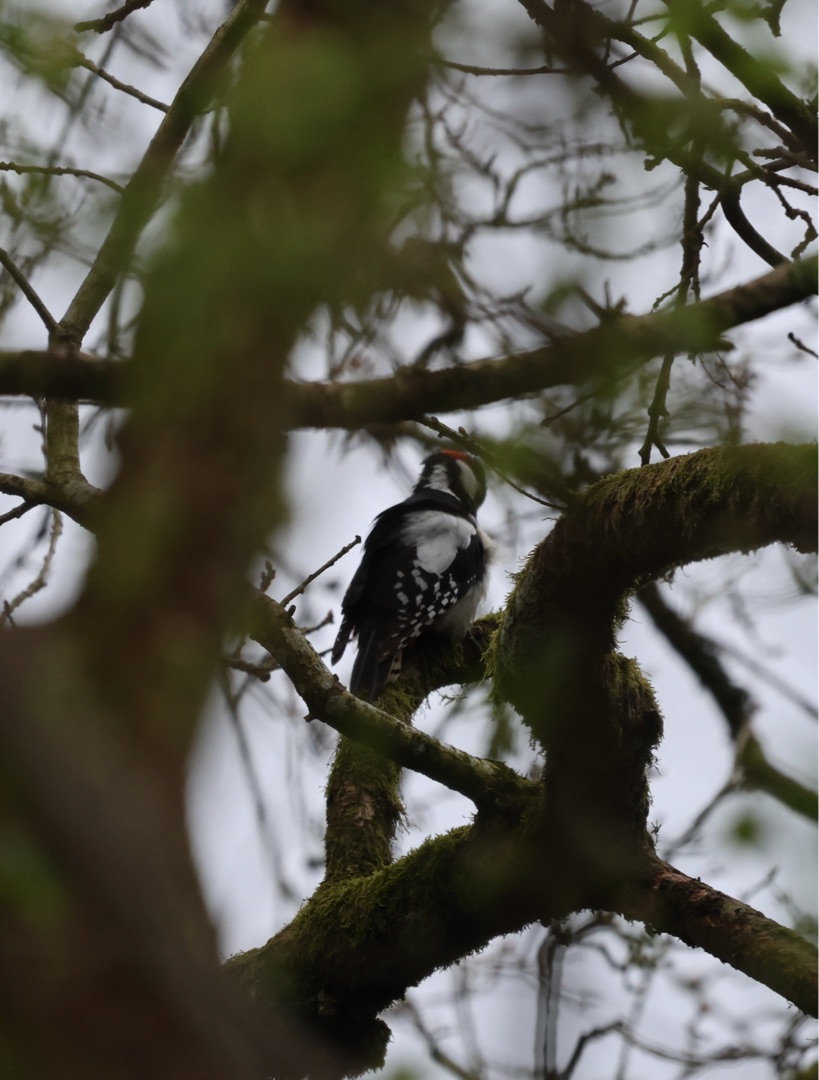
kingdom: Animalia
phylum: Chordata
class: Aves
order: Piciformes
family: Picidae
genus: Dendrocopos
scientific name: Dendrocopos major
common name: Stor flagspætte
